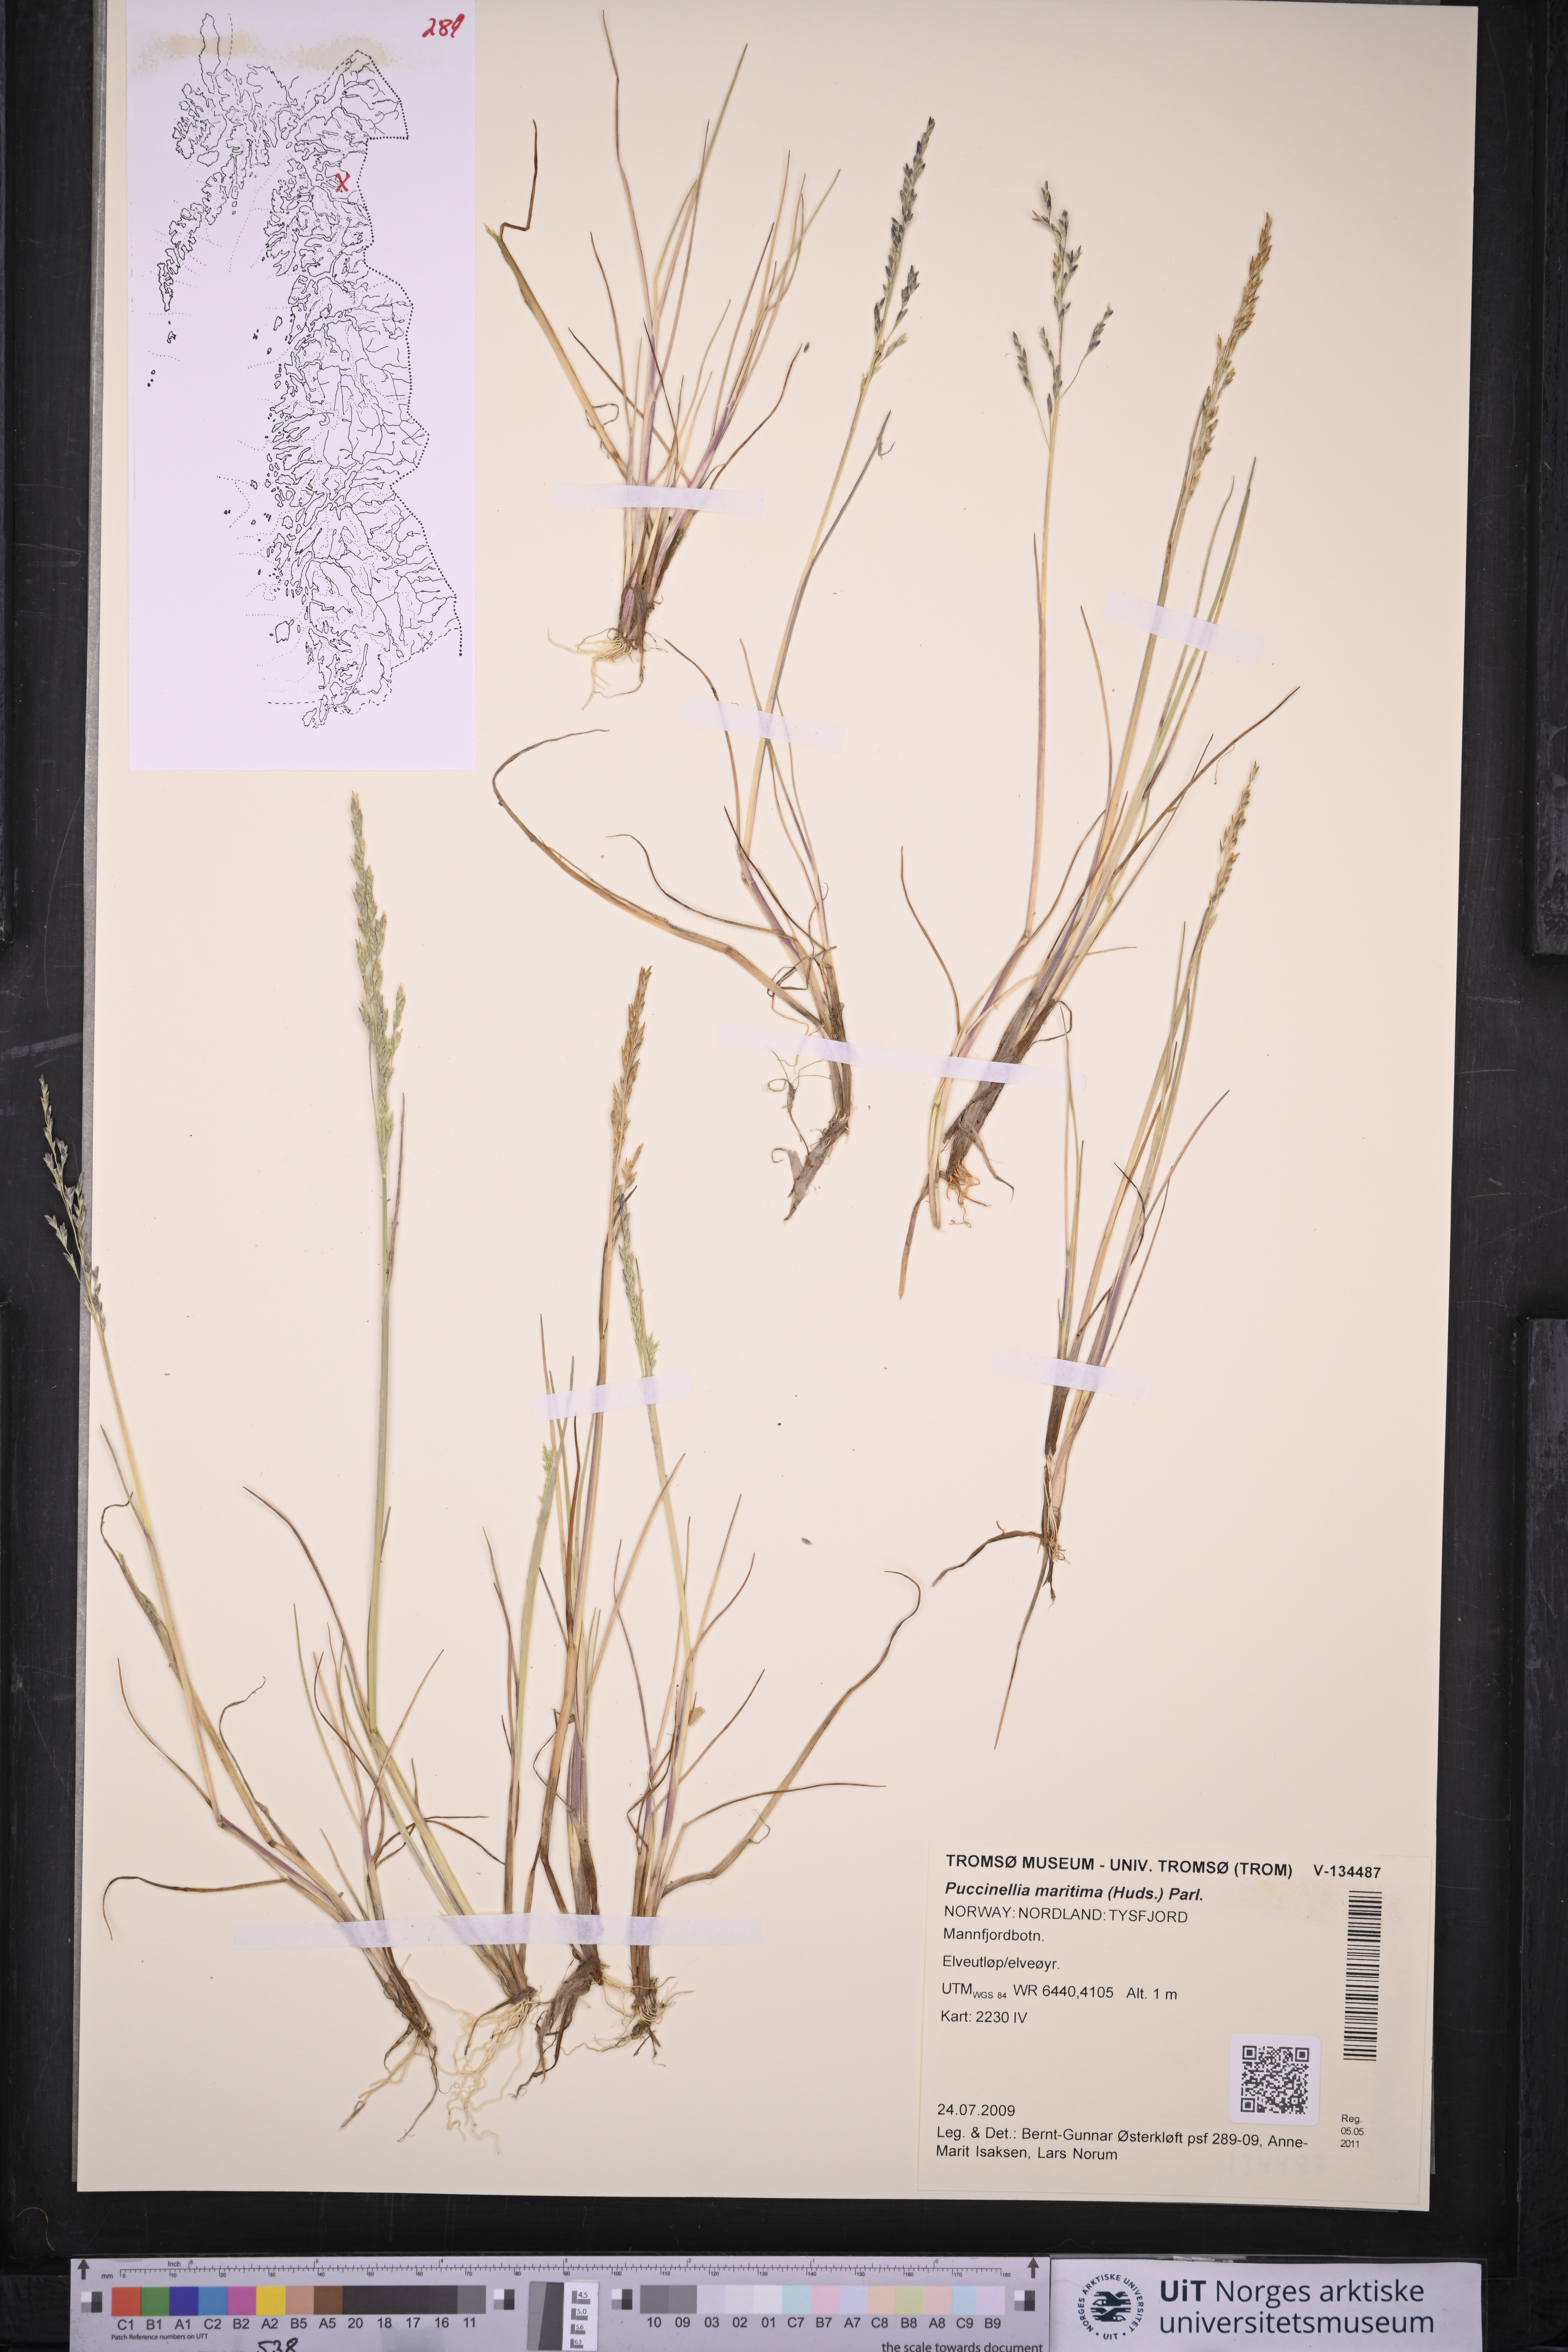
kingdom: Plantae
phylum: Tracheophyta
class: Liliopsida
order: Poales
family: Poaceae
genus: Puccinellia
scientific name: Puccinellia maritima
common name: Common saltmarsh grass
